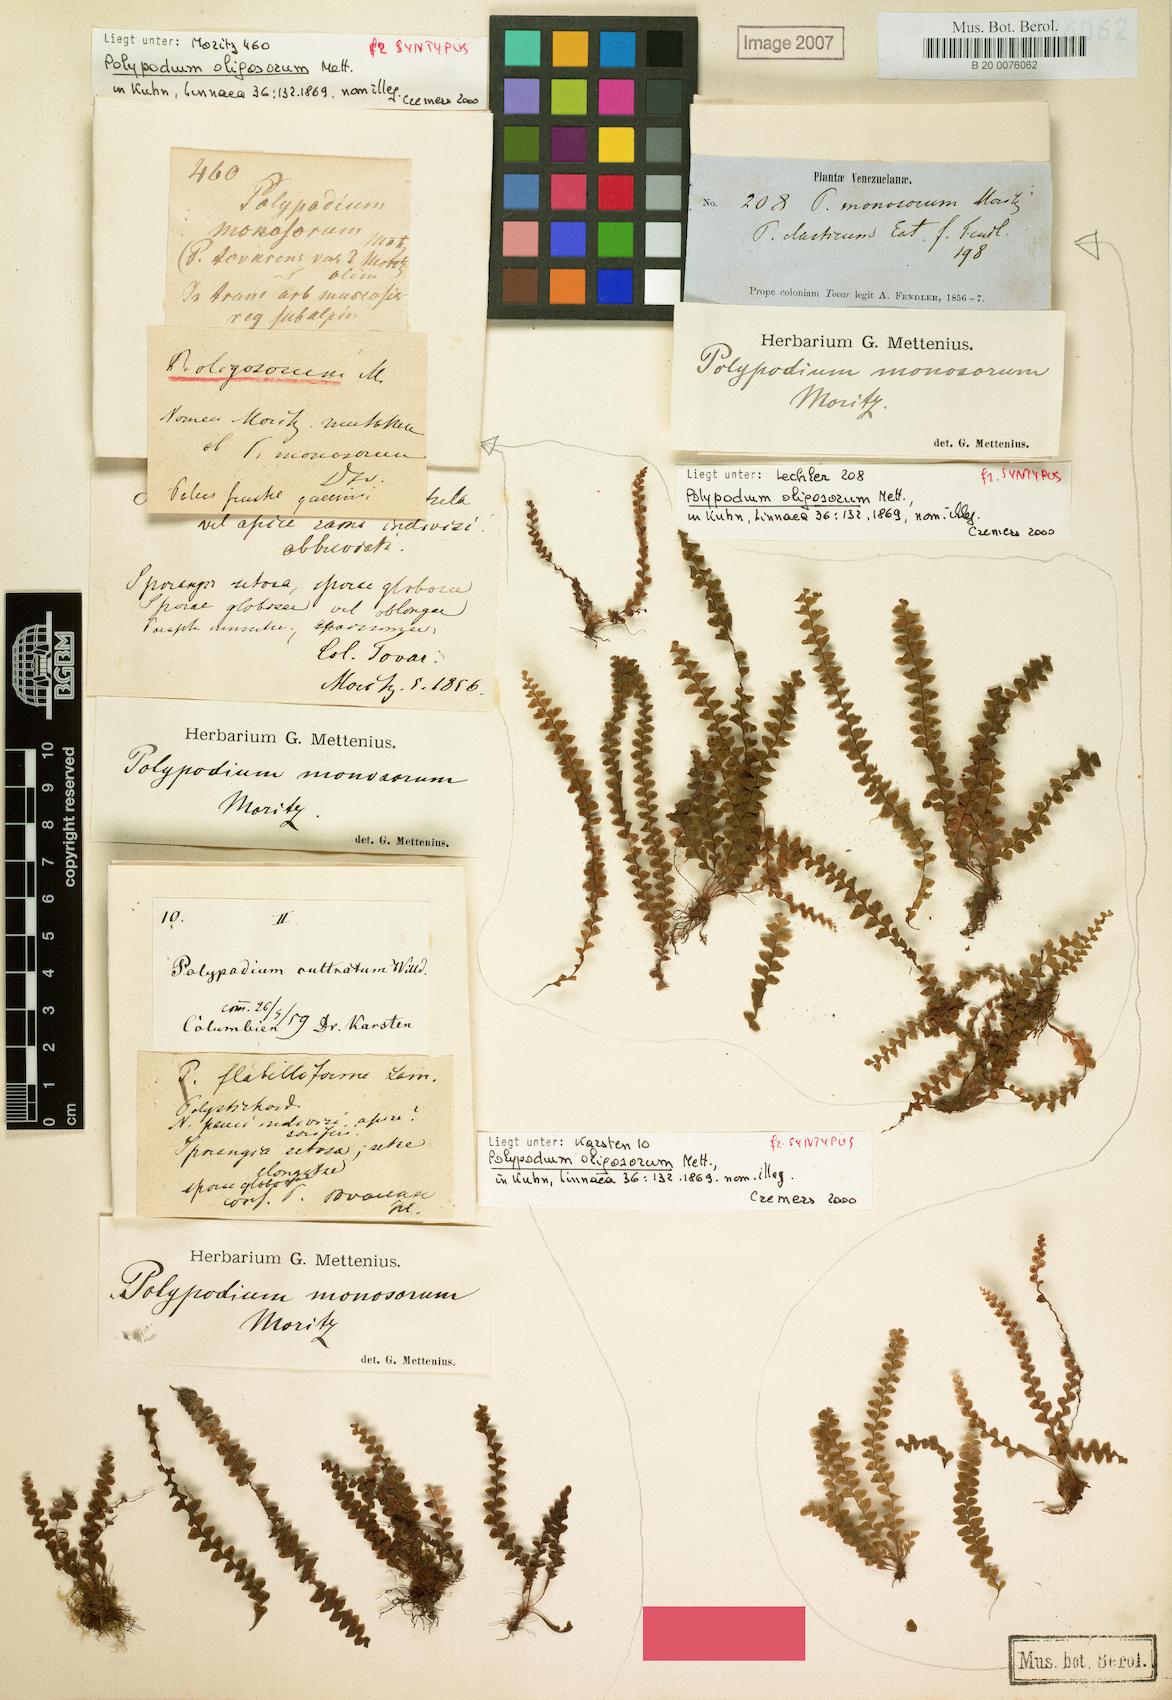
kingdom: Plantae
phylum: Tracheophyta
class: Polypodiopsida
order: Polypodiales
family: Polypodiaceae
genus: Pleopeltis
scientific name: Pleopeltis monosora
